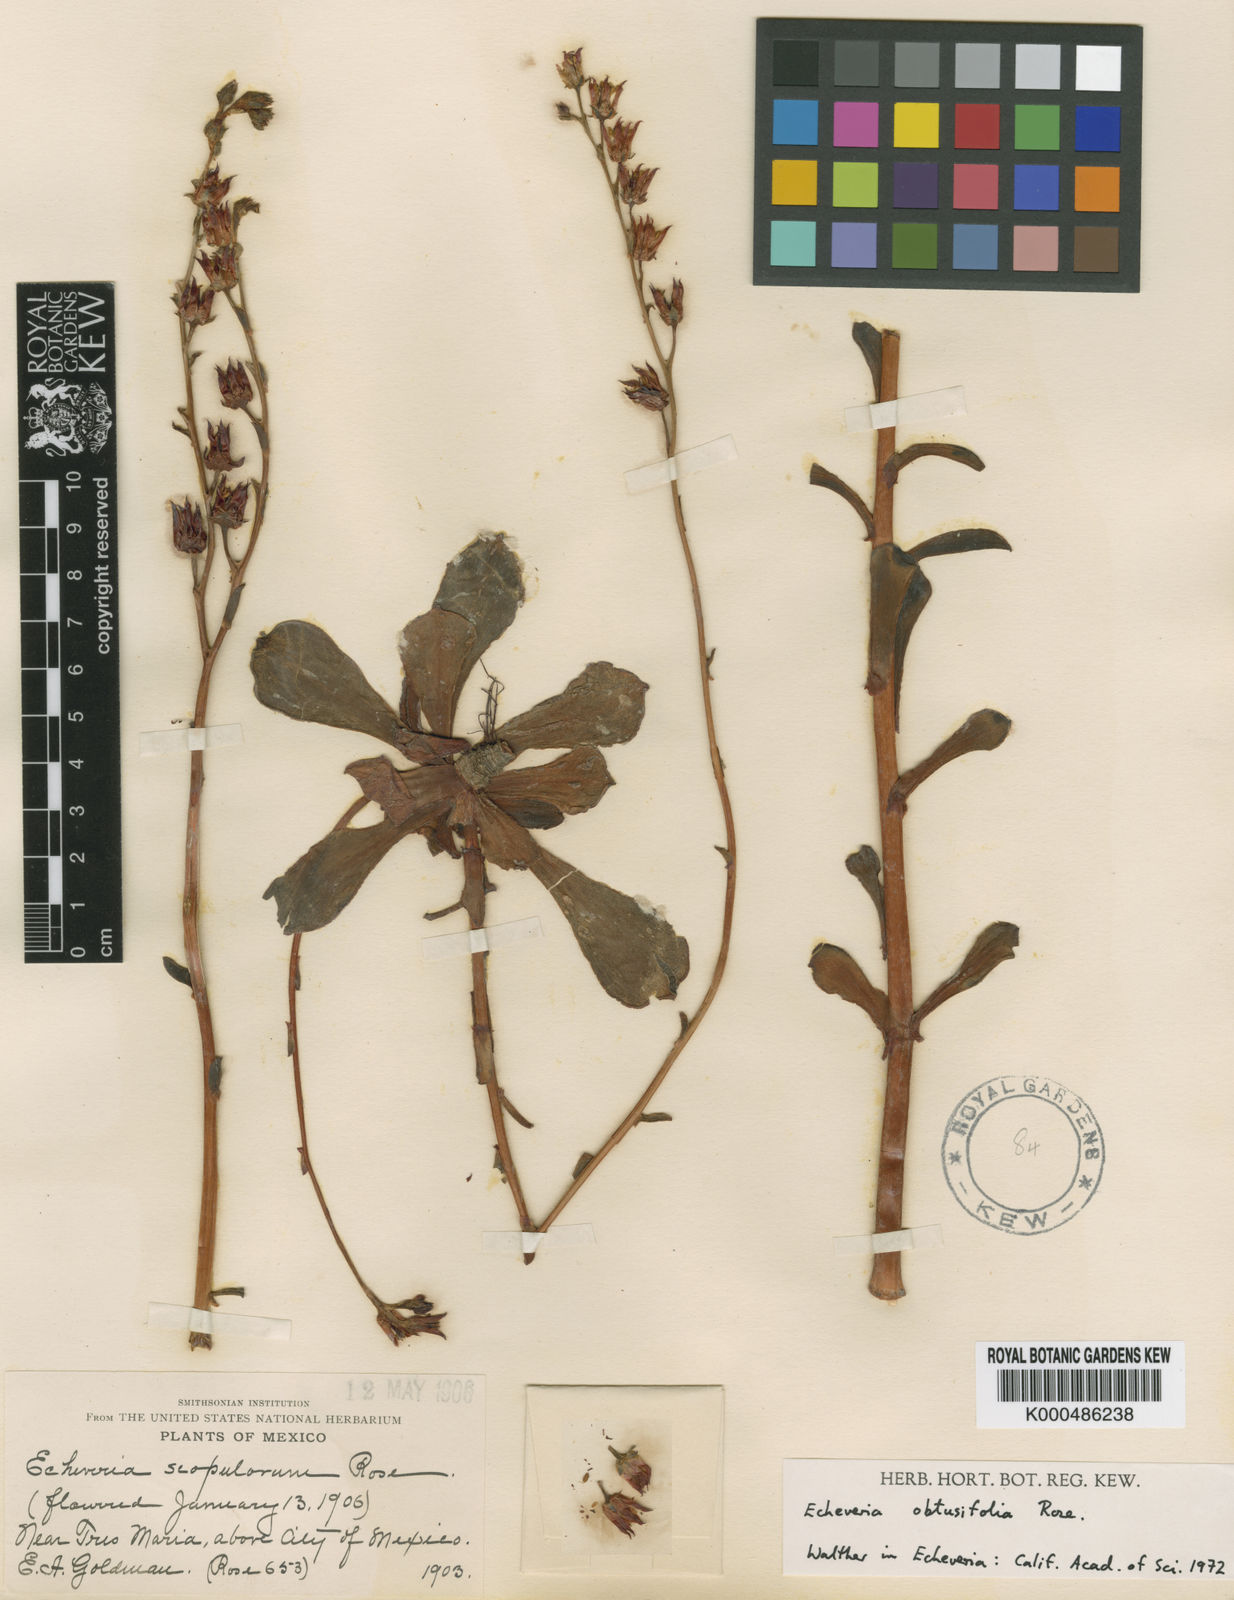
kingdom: Plantae
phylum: Tracheophyta
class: Magnoliopsida
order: Saxifragales
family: Crassulaceae
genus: Echeveria
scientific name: Echeveria fulgens
